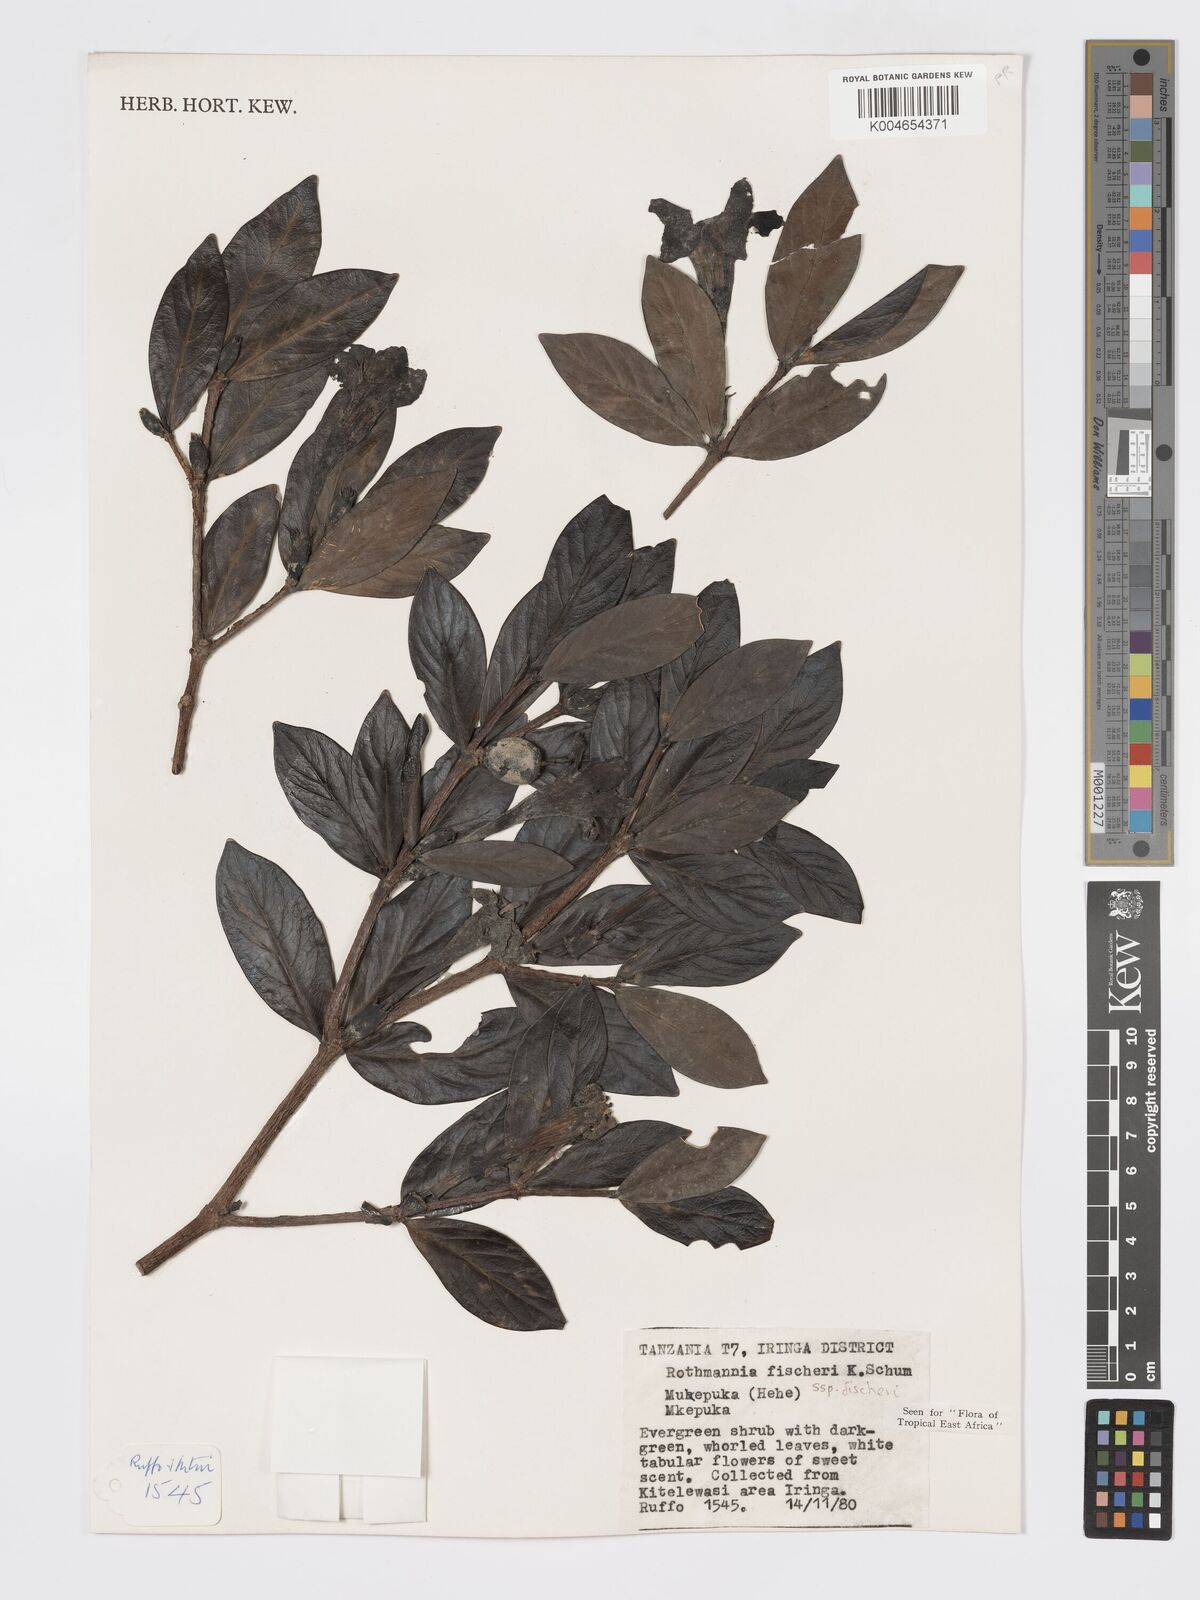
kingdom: Plantae
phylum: Tracheophyta
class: Magnoliopsida
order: Gentianales
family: Rubiaceae
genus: Rothmannia
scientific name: Rothmannia fischeri
